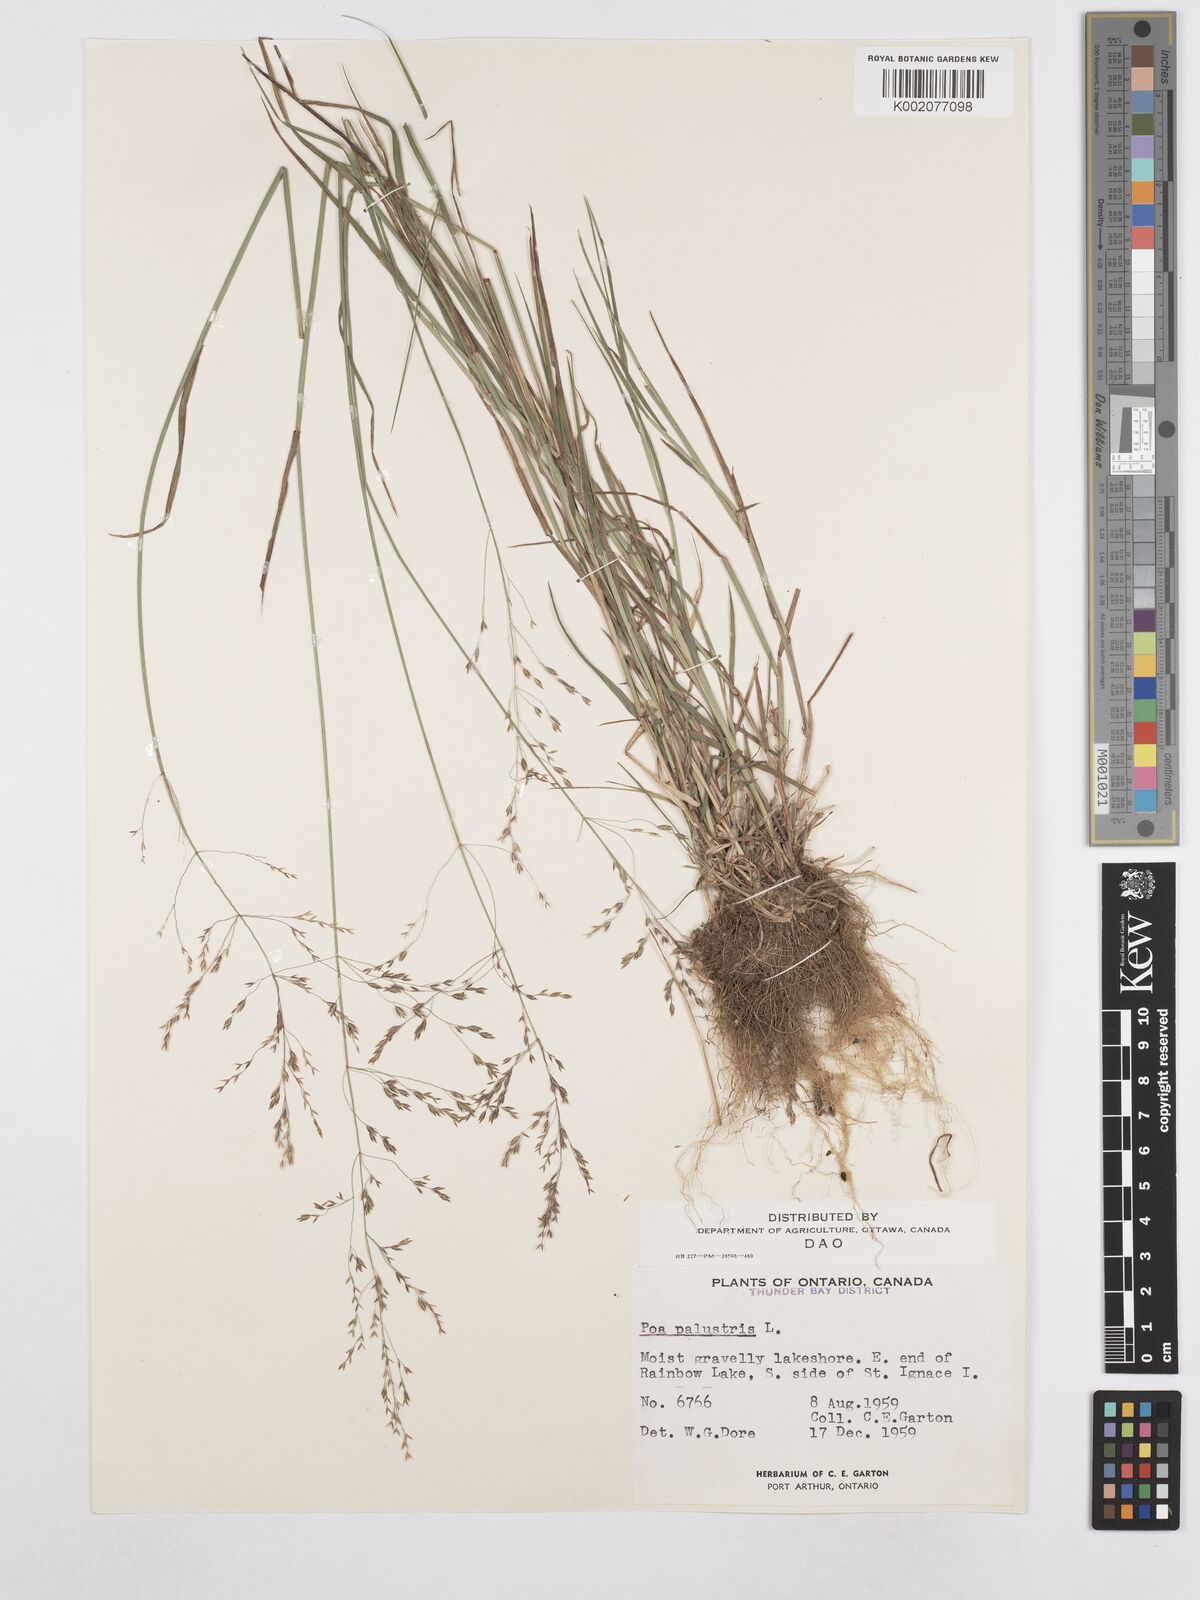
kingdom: Plantae
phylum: Tracheophyta
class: Liliopsida
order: Poales
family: Poaceae
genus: Poa
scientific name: Poa palustris
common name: Swamp meadow-grass
